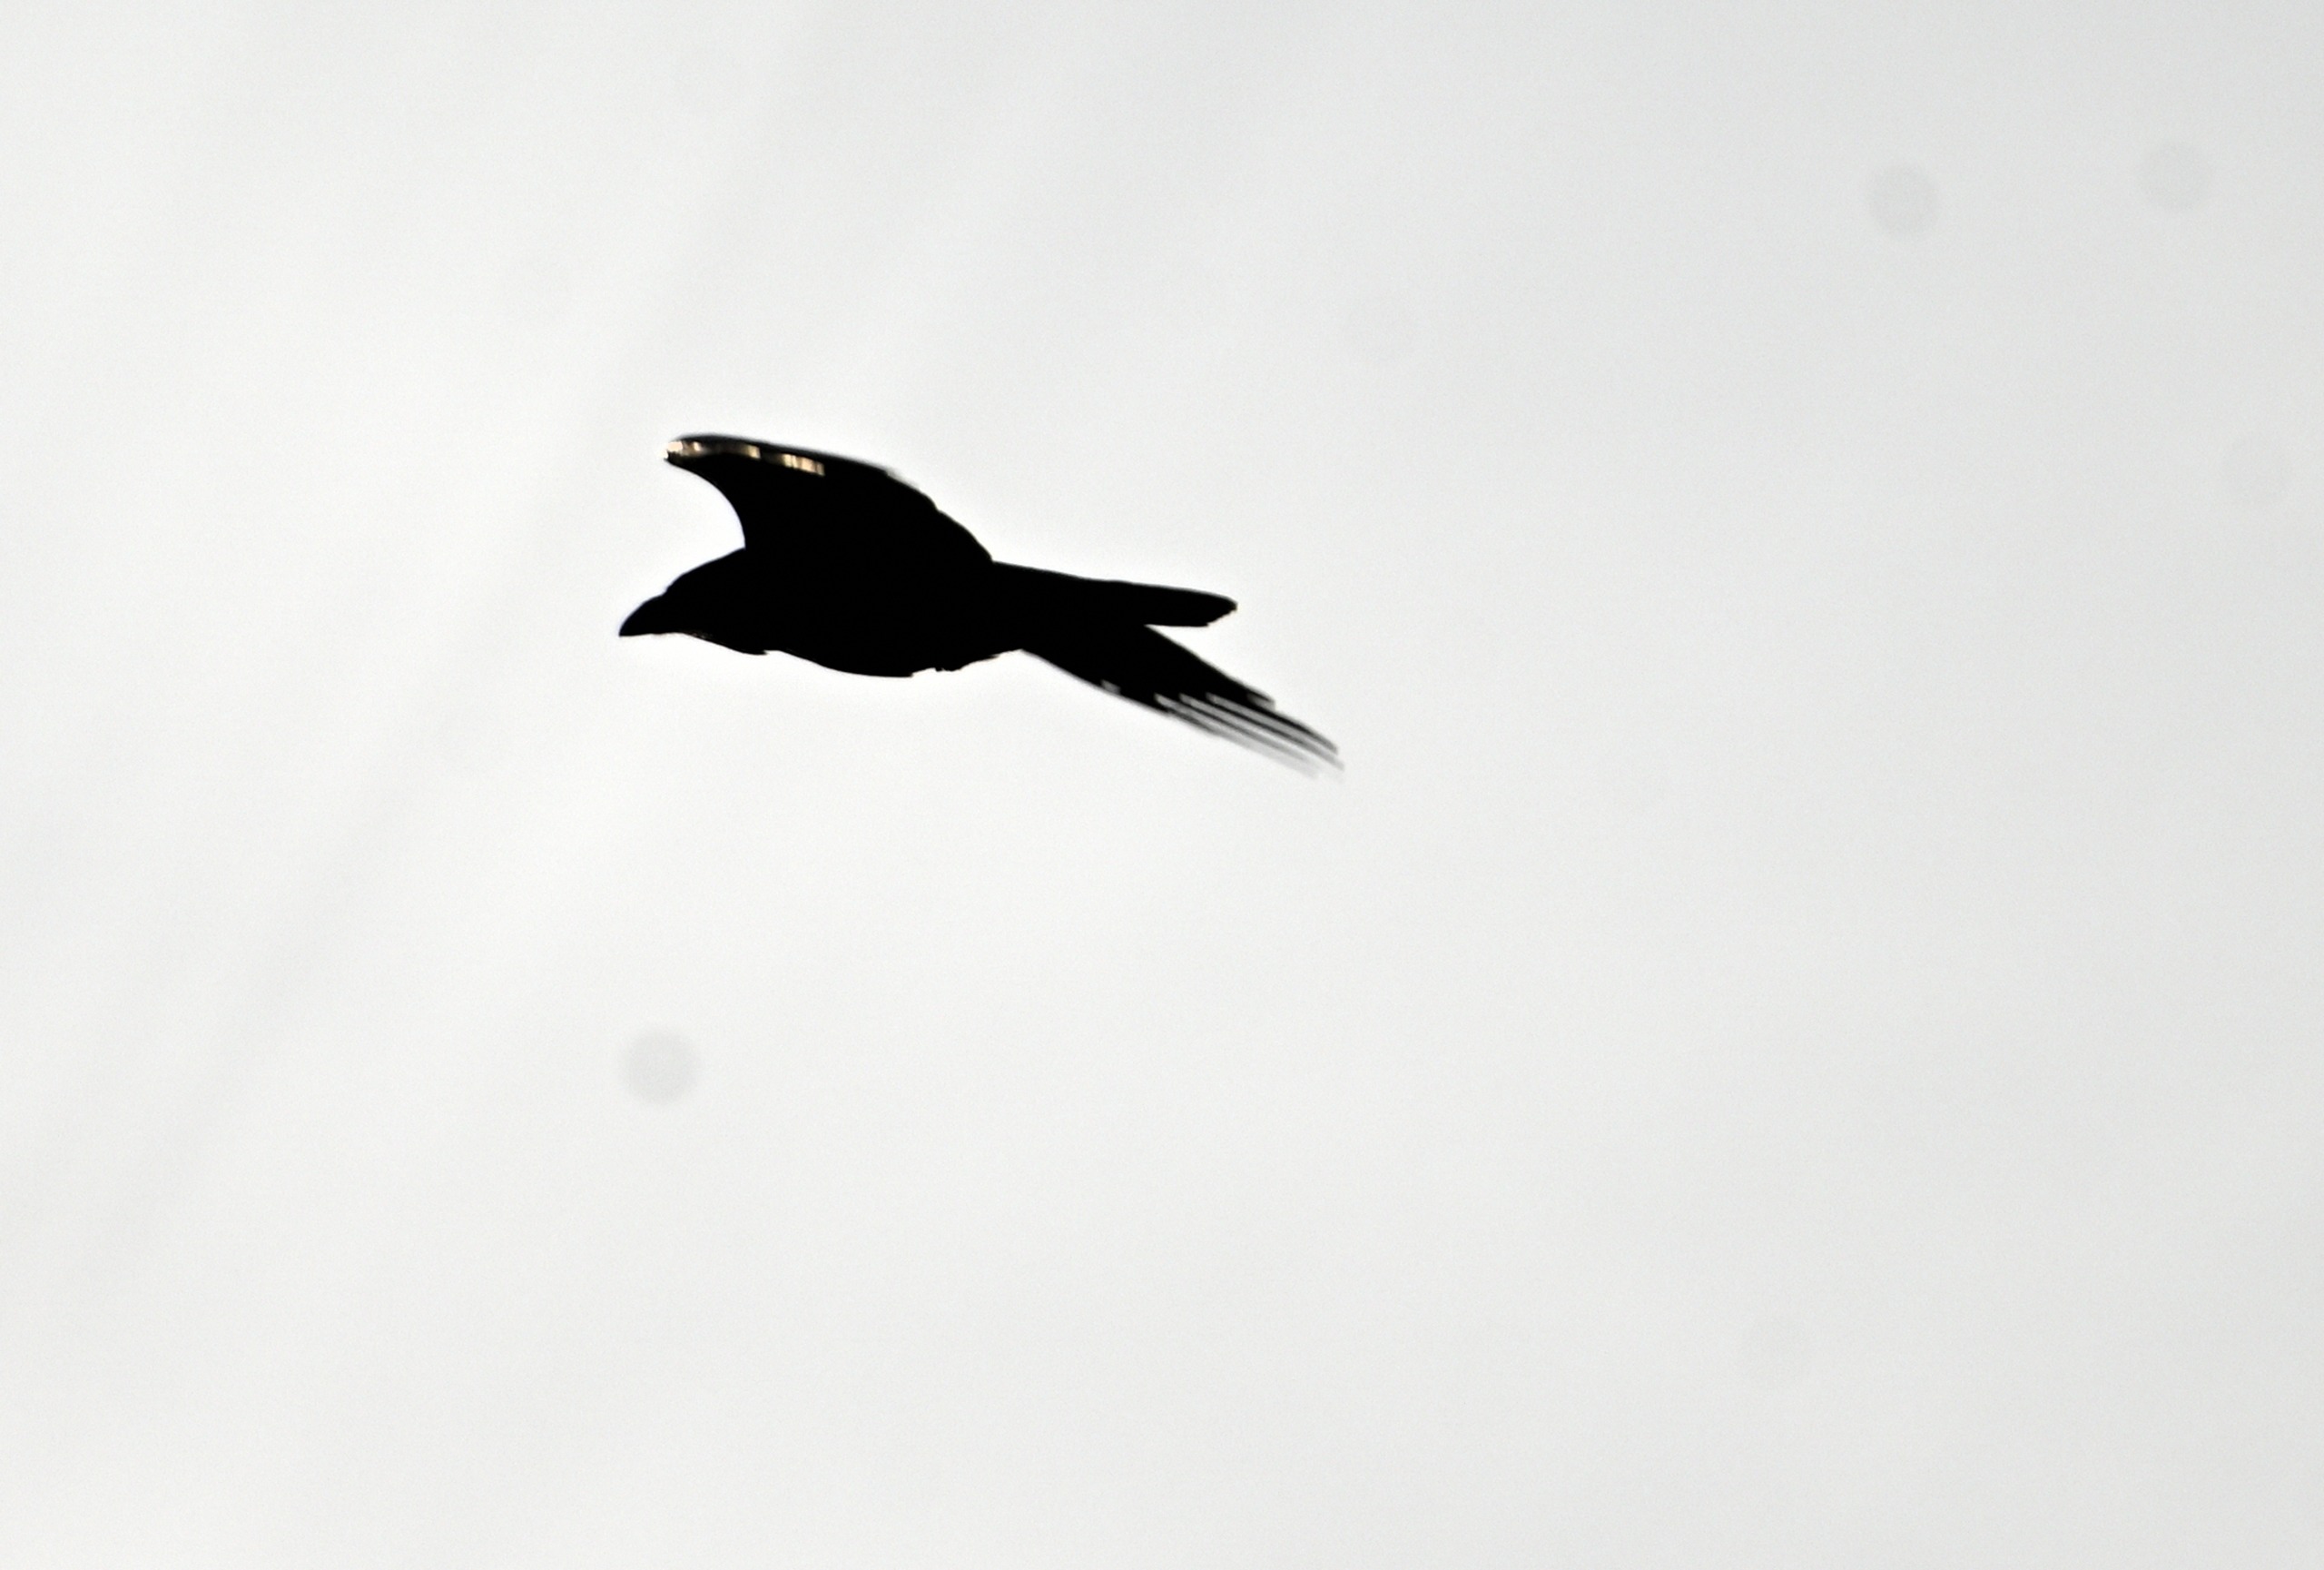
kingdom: Animalia
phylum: Chordata
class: Aves
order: Passeriformes
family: Corvidae
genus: Corvus
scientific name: Corvus corax
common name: Ravn
